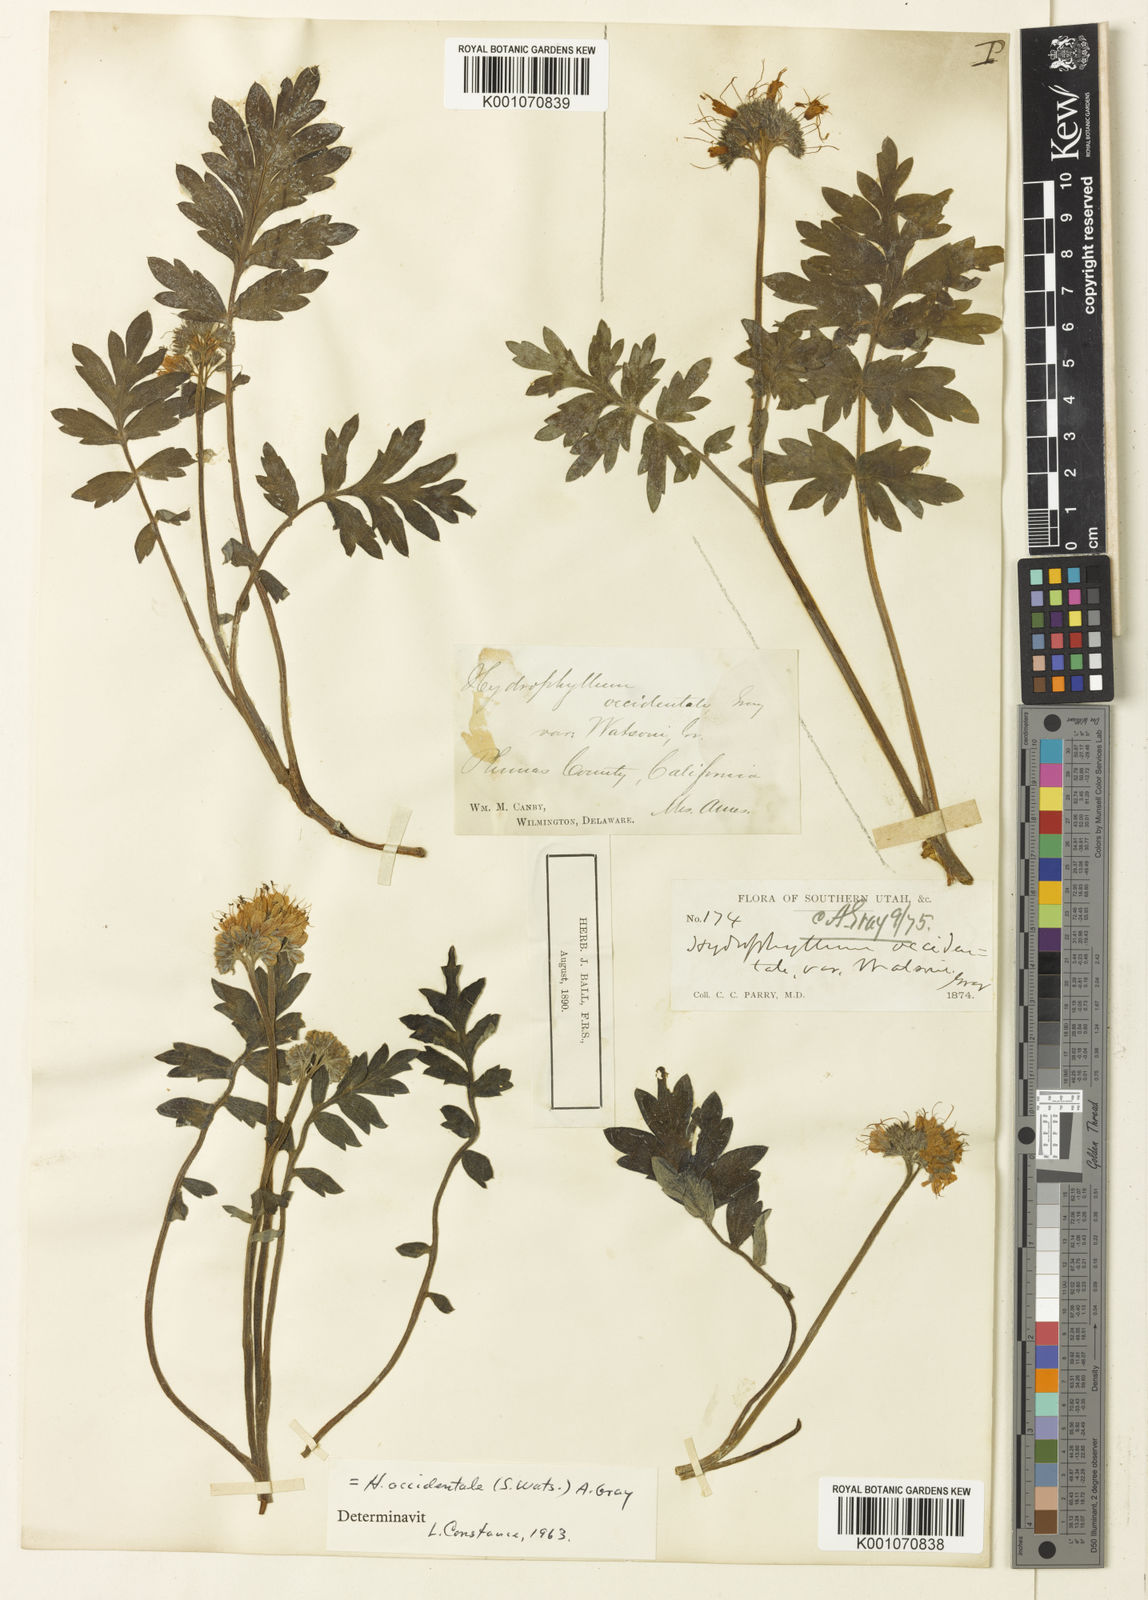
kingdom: Plantae
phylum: Tracheophyta
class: Magnoliopsida
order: Boraginales
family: Hydrophyllaceae
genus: Hydrophyllum
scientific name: Hydrophyllum occidentale
